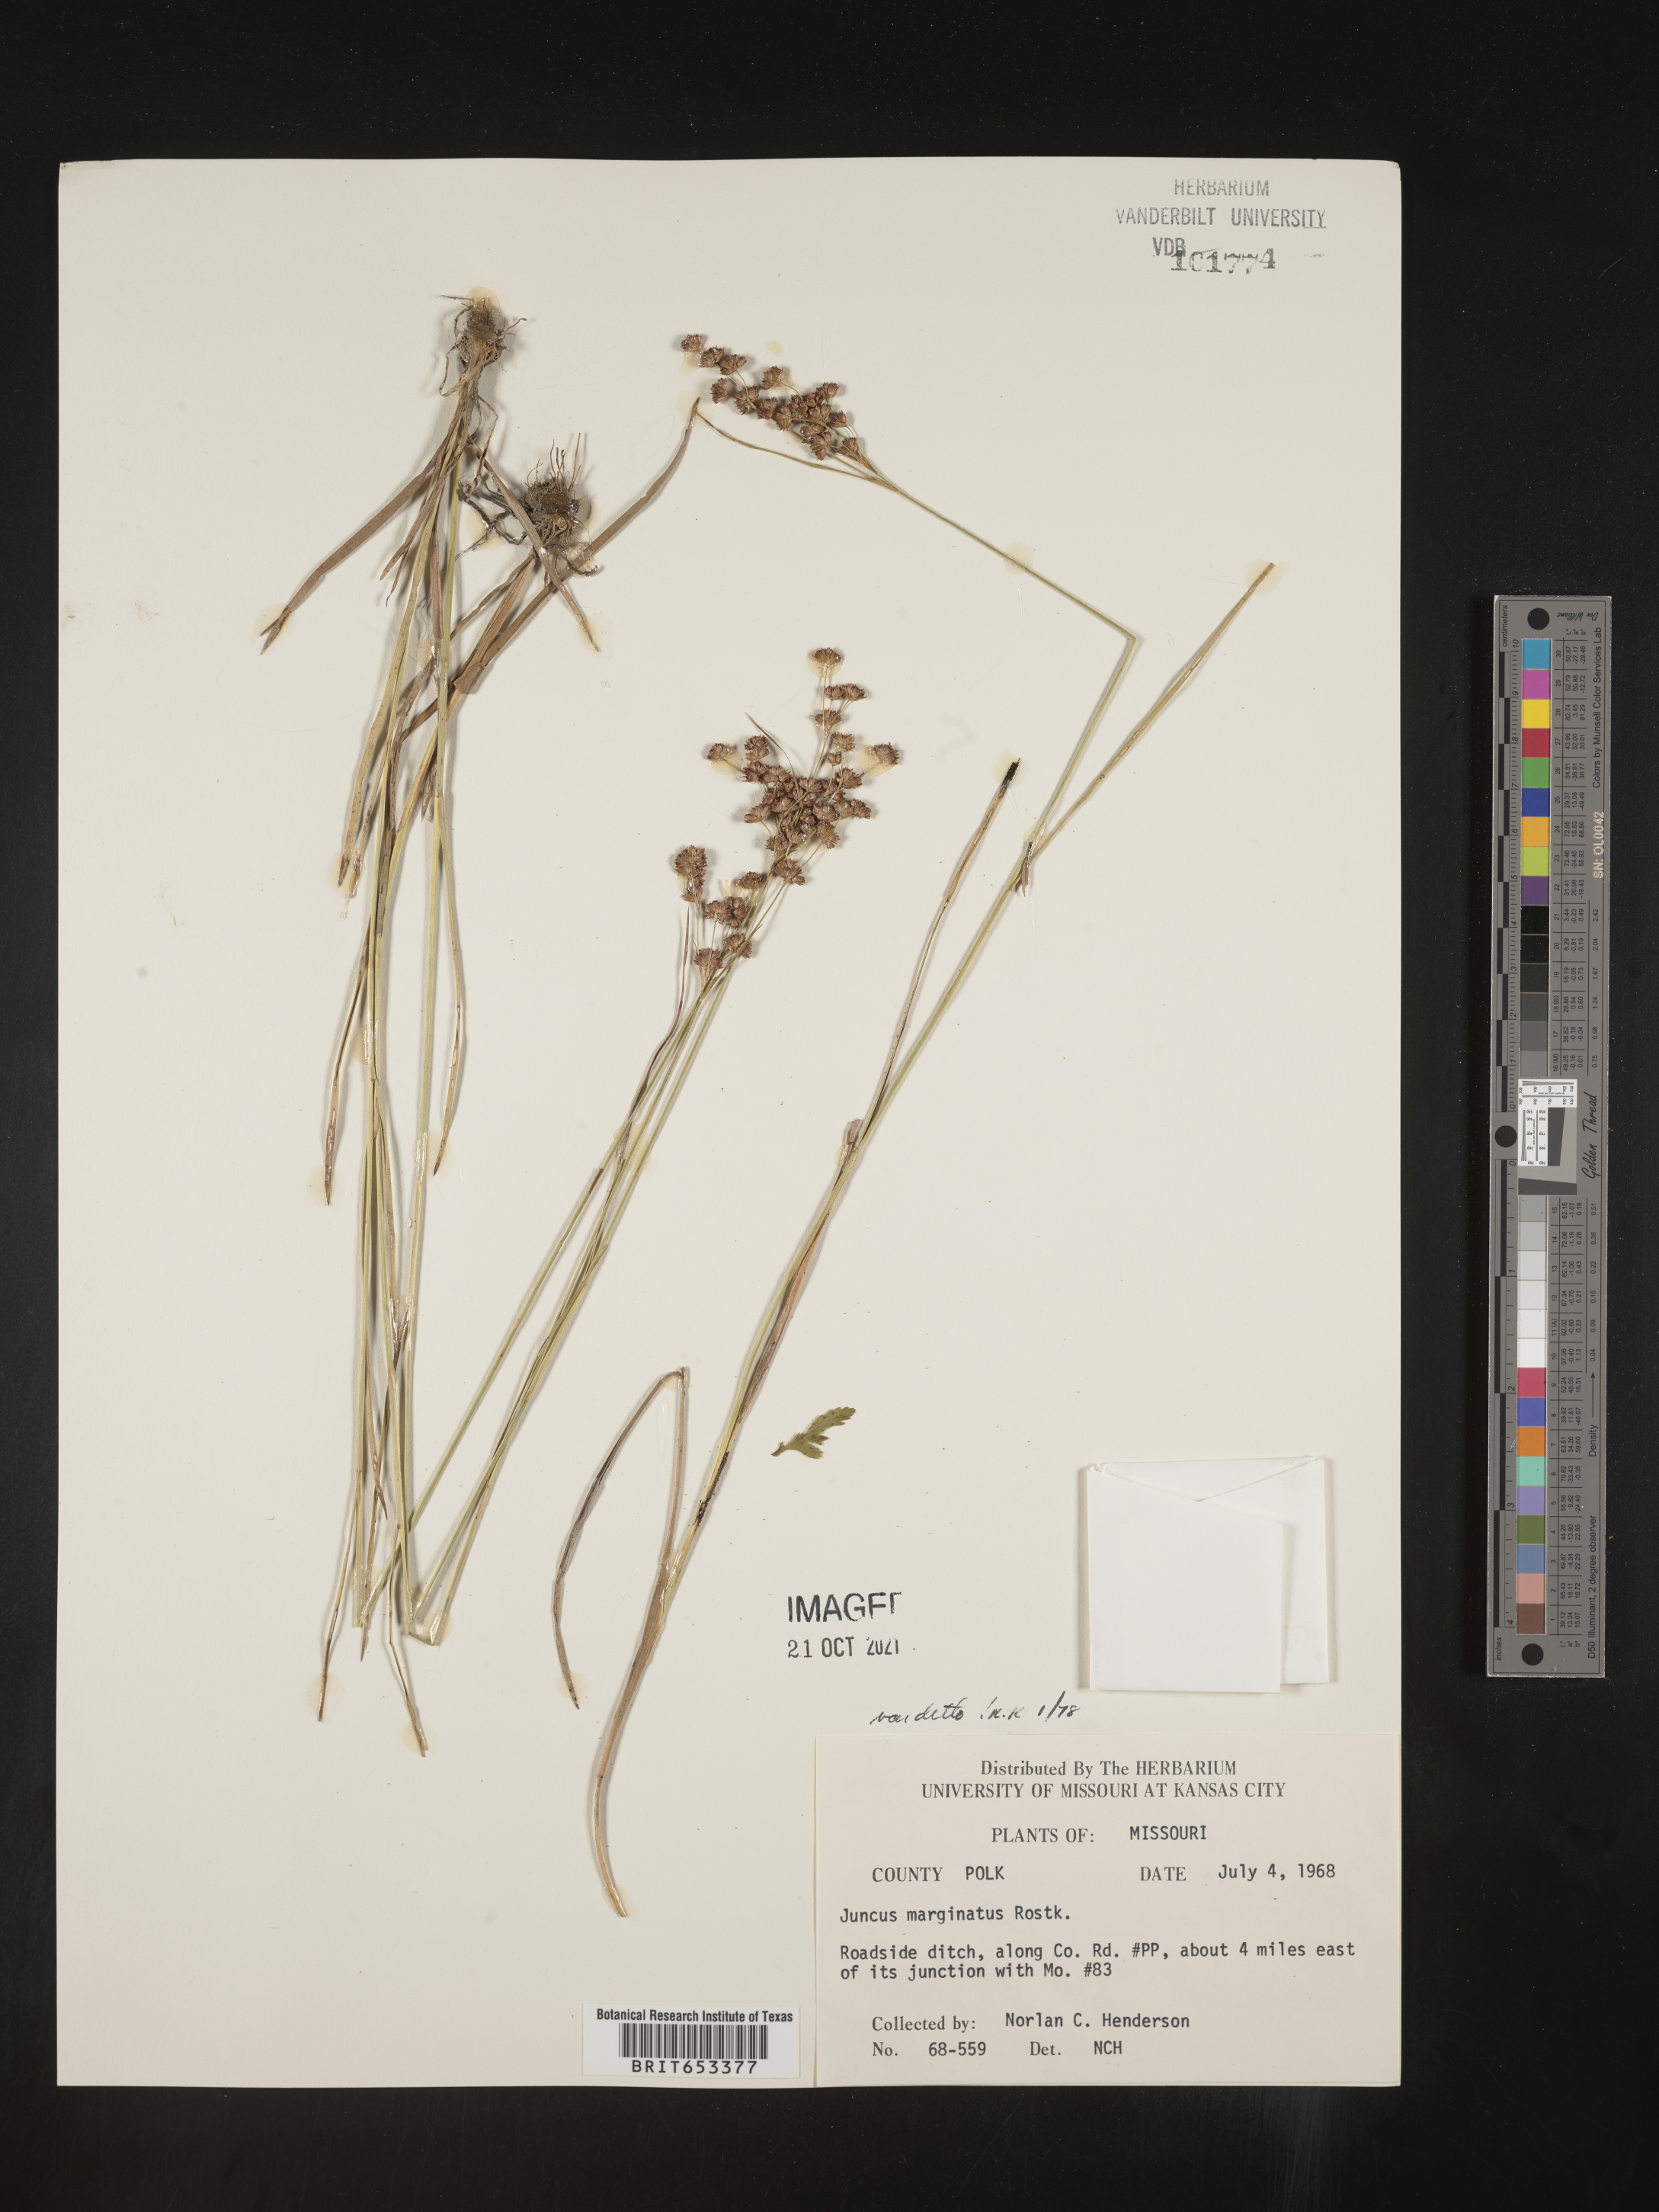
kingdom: Plantae
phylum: Tracheophyta
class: Liliopsida
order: Poales
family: Juncaceae
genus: Juncus
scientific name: Juncus marginatus
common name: Grass-leaf rush
